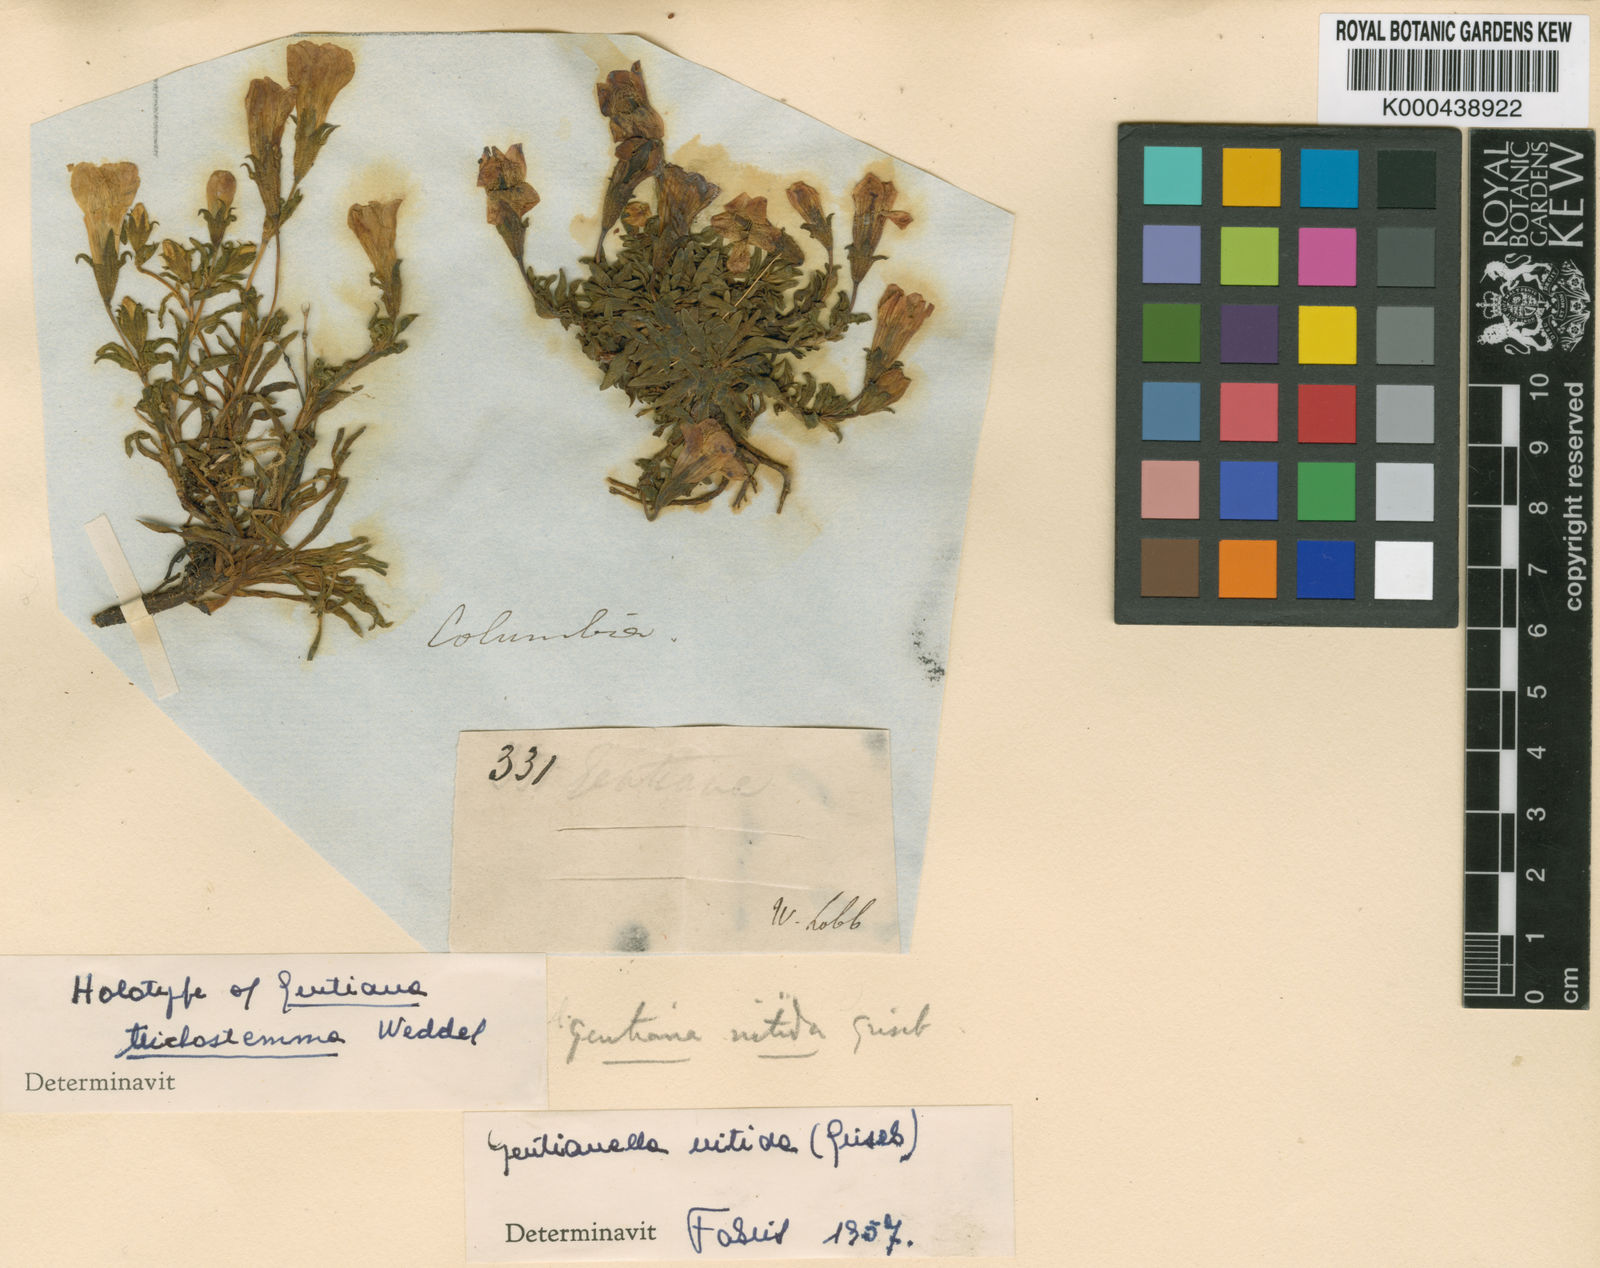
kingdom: Plantae
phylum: Tracheophyta
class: Magnoliopsida
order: Gentianales
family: Gentianaceae
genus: Gentianella
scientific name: Gentianella nitida
